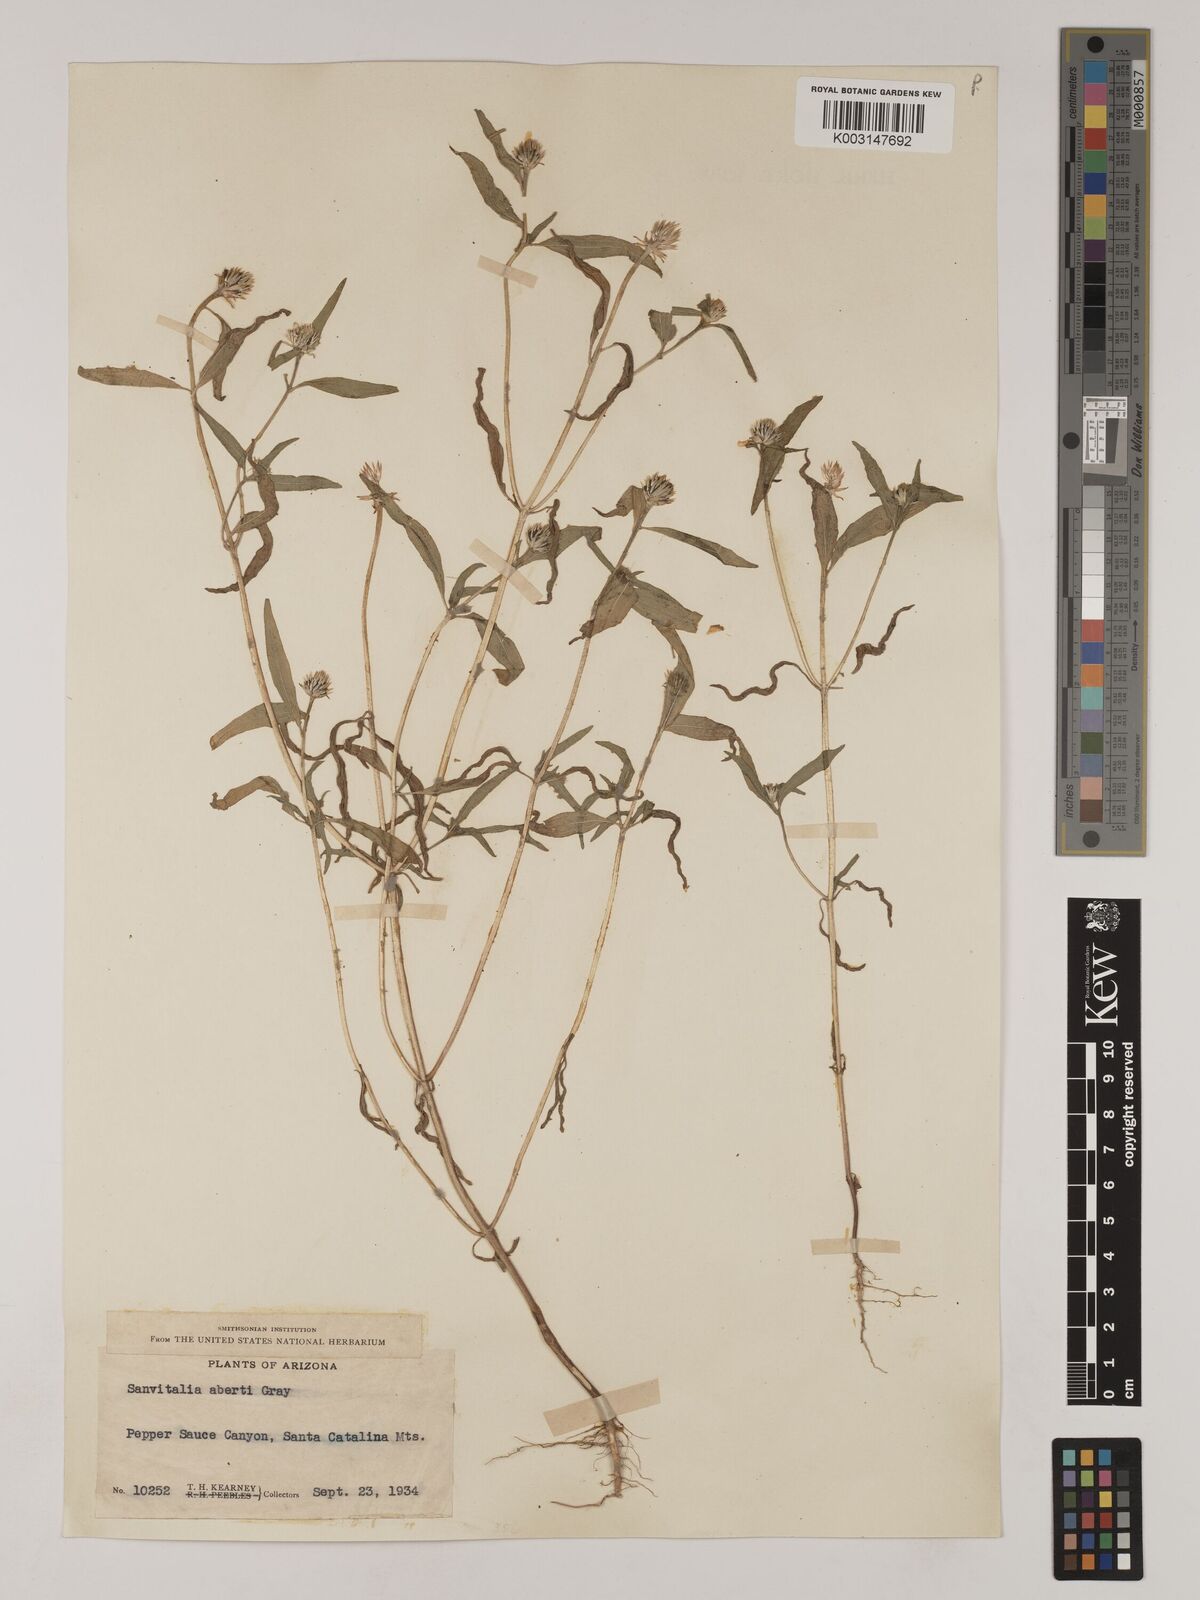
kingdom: Plantae
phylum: Tracheophyta
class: Magnoliopsida
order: Asterales
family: Asteraceae
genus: Sanvitalia
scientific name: Sanvitalia abertii
